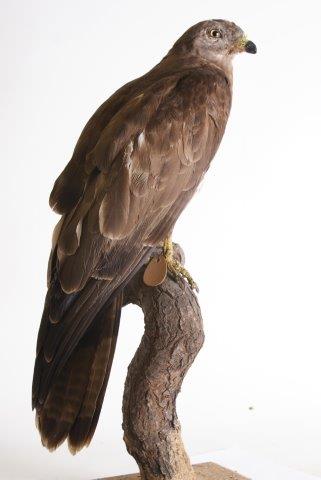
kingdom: Animalia
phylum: Chordata
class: Aves
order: Accipitriformes
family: Accipitridae
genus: Pernis
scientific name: Pernis apivorus
